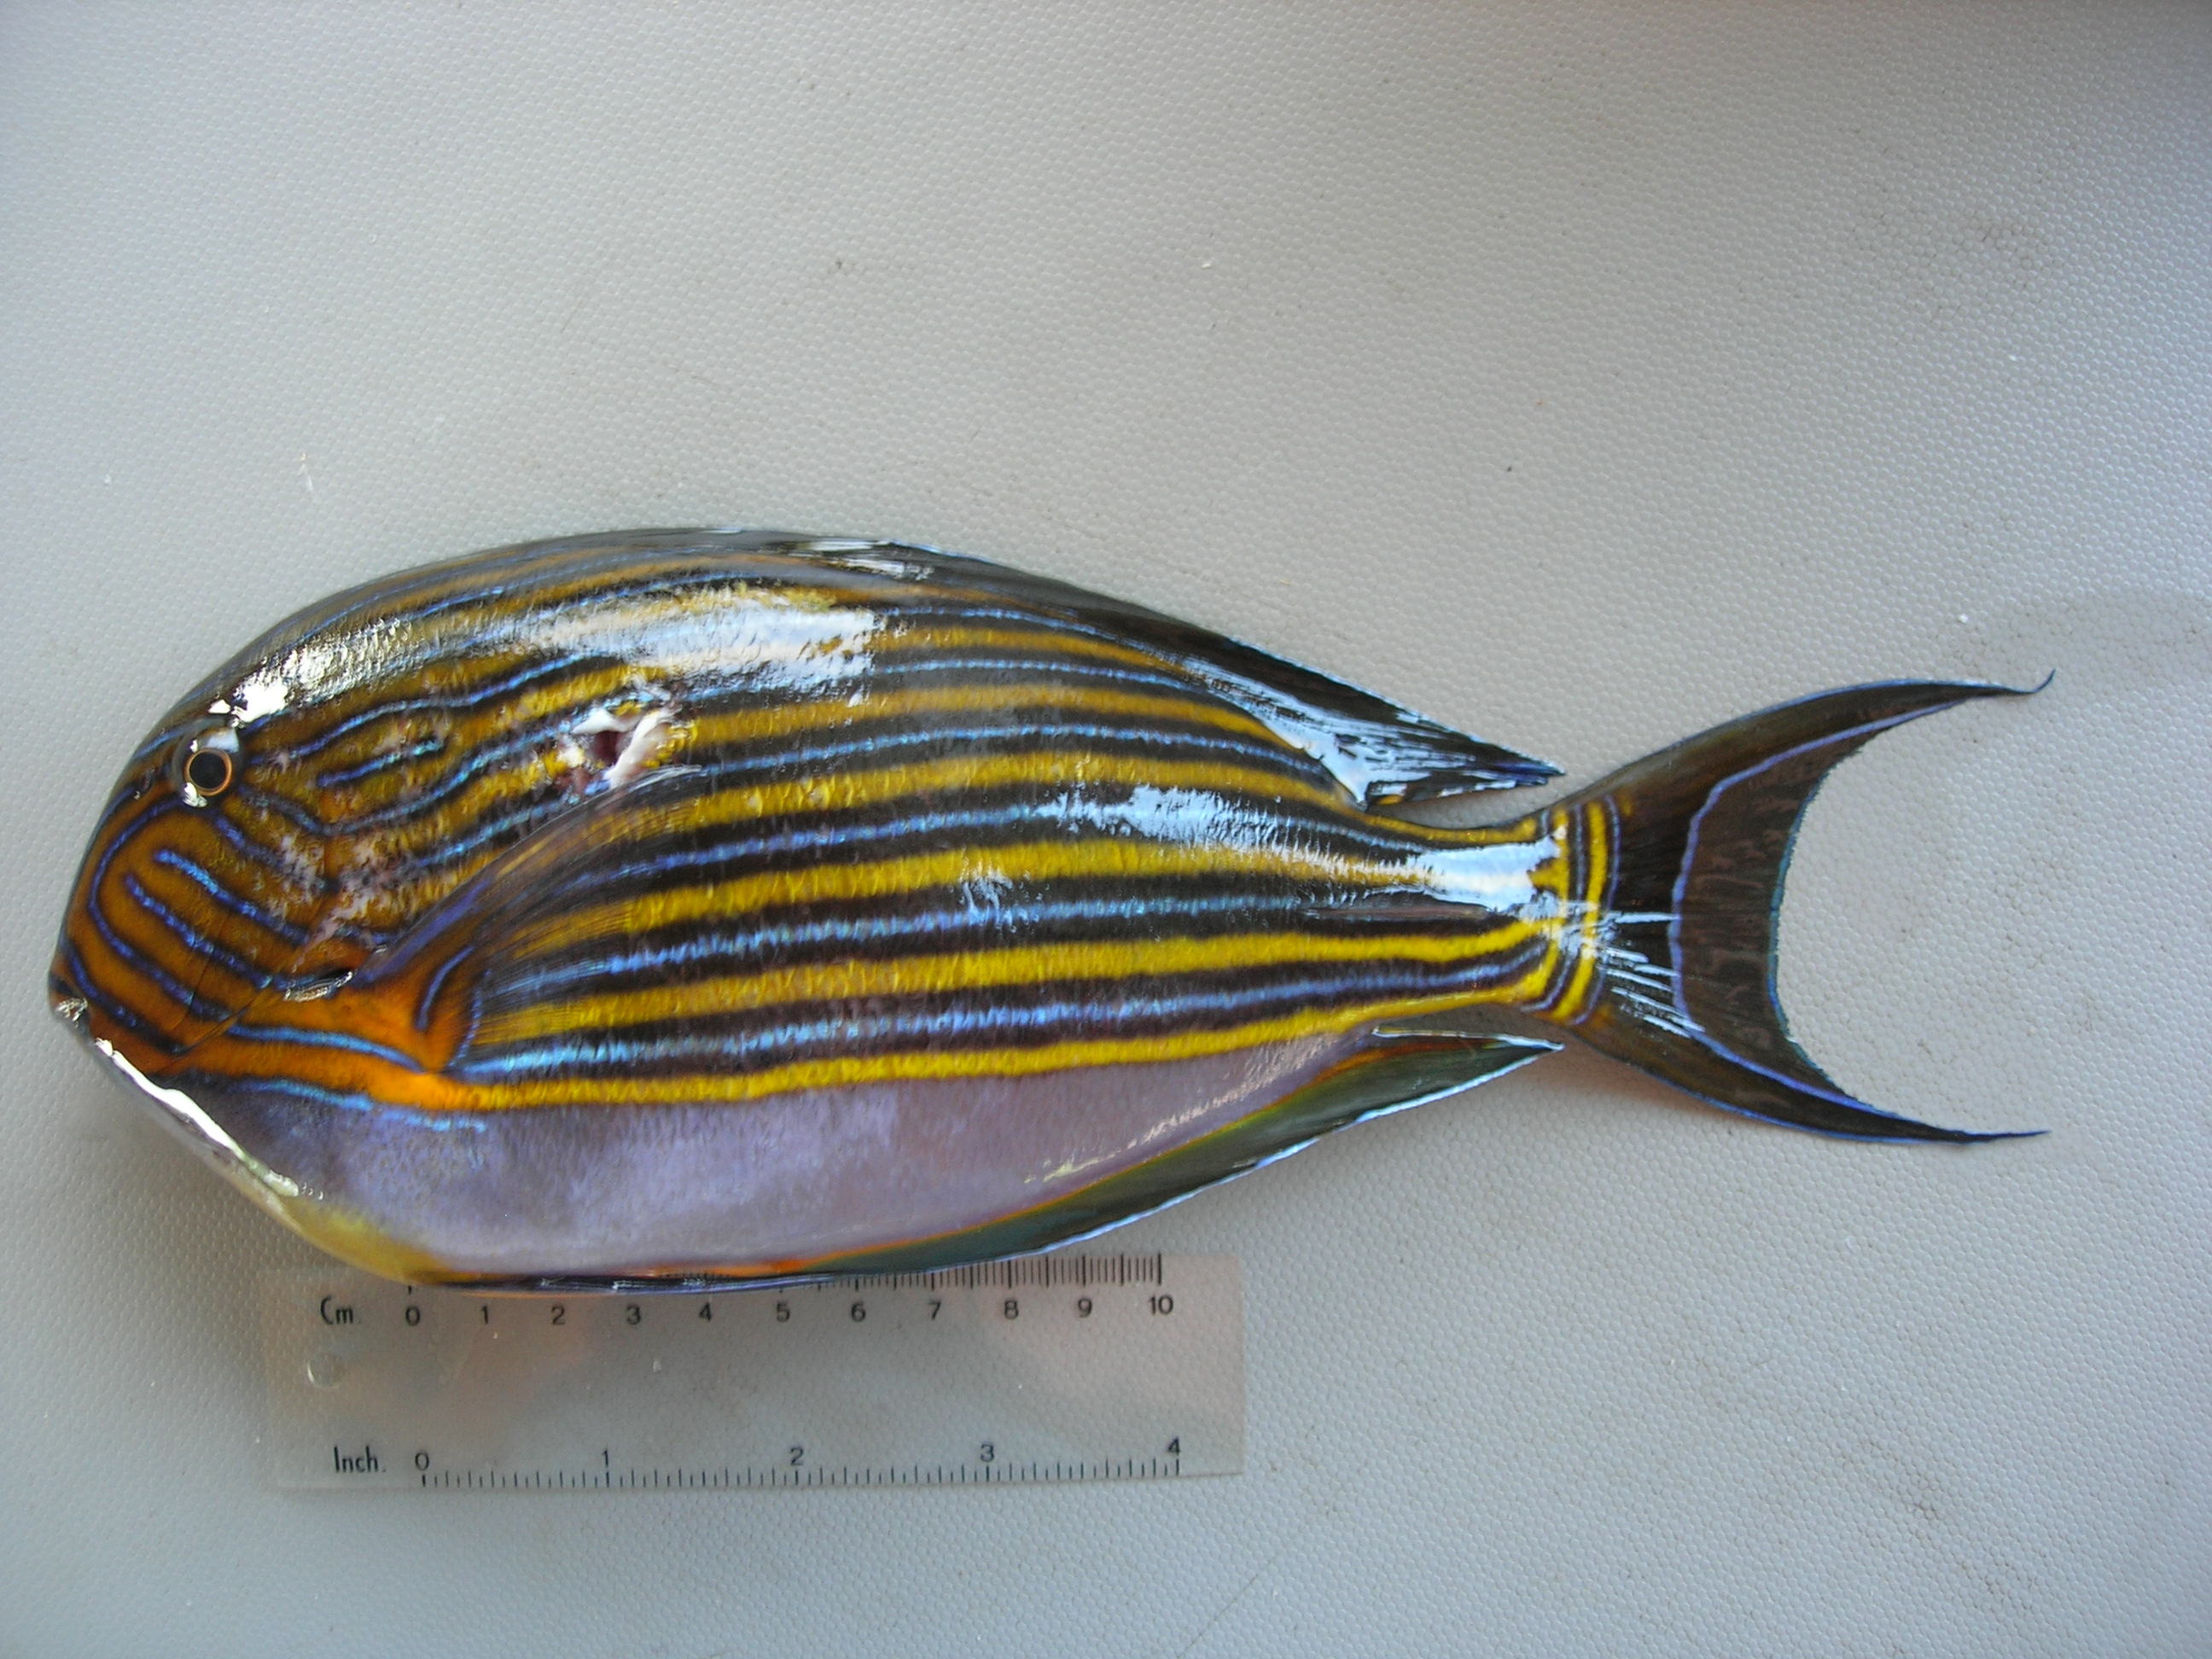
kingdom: Animalia
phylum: Chordata
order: Perciformes
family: Acanthuridae
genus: Acanthurus
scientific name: Acanthurus lineatus
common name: Striped surgeonfish
